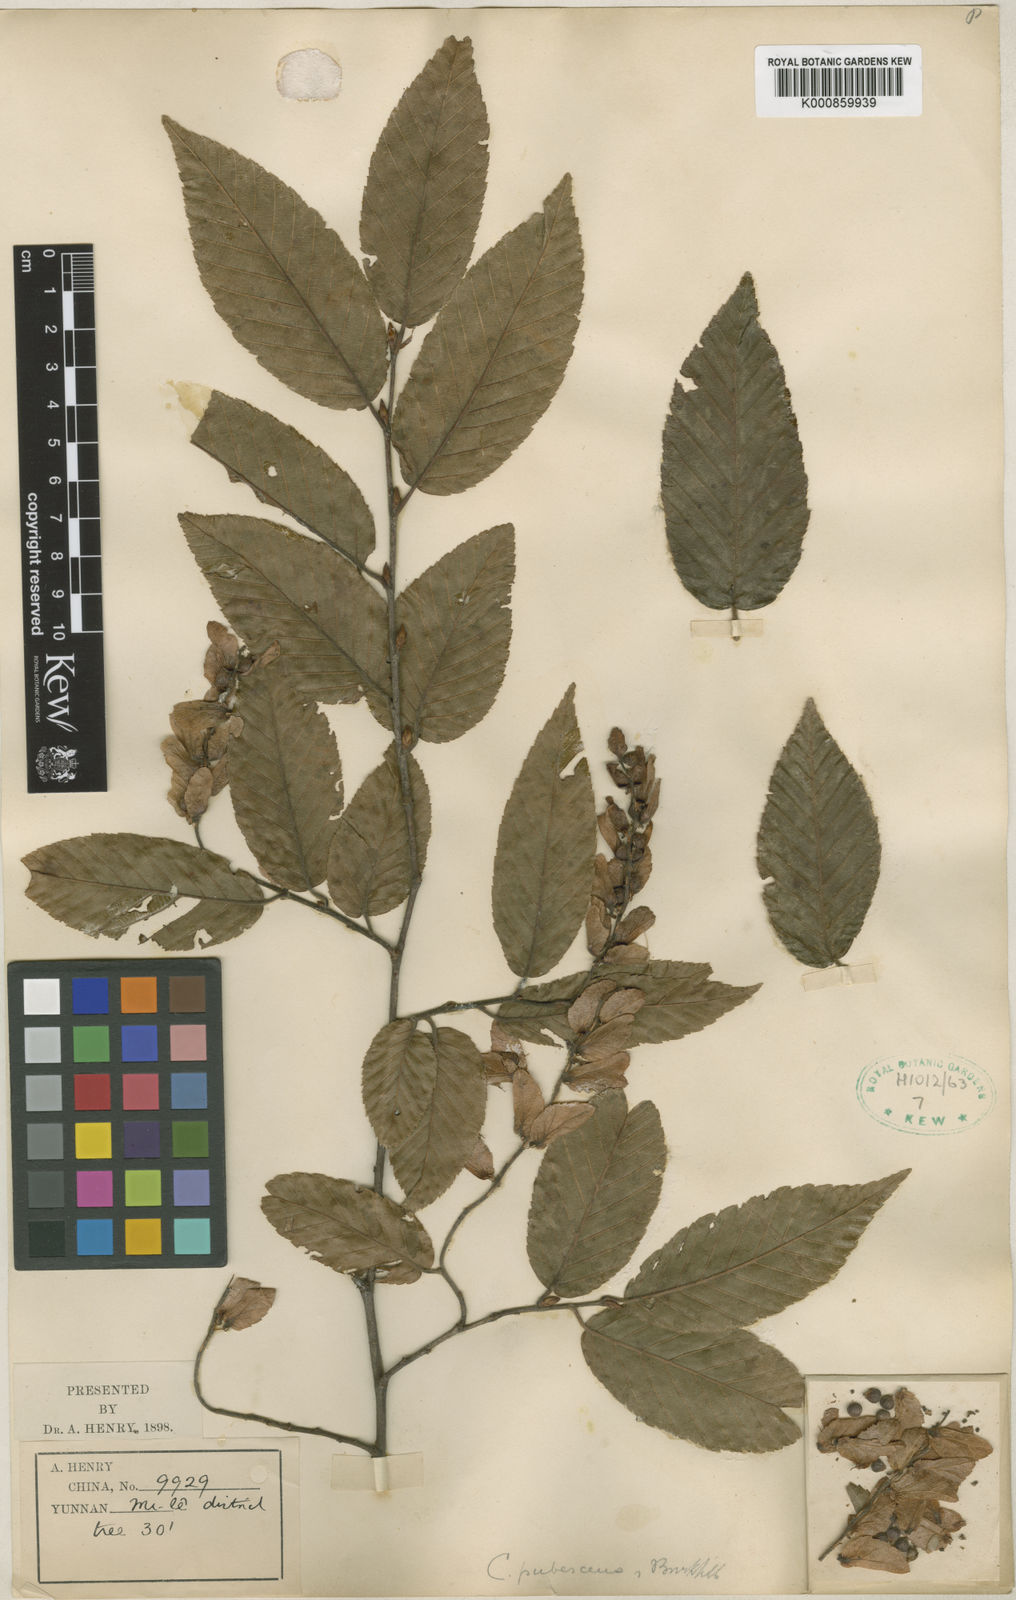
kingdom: Plantae
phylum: Tracheophyta
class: Magnoliopsida
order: Fagales
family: Betulaceae
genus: Carpinus
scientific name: Carpinus pubescens
